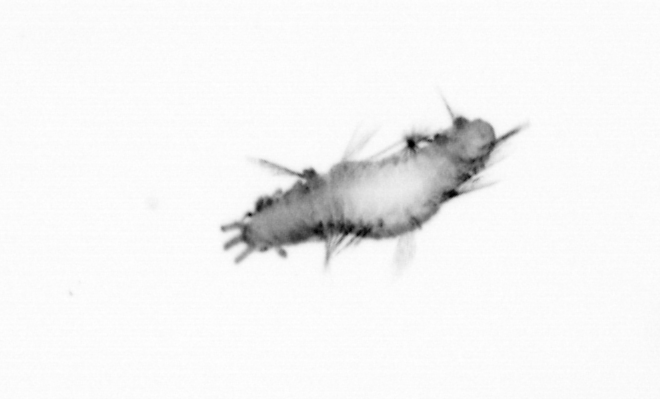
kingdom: Animalia
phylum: Annelida
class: Polychaeta
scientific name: Polychaeta
